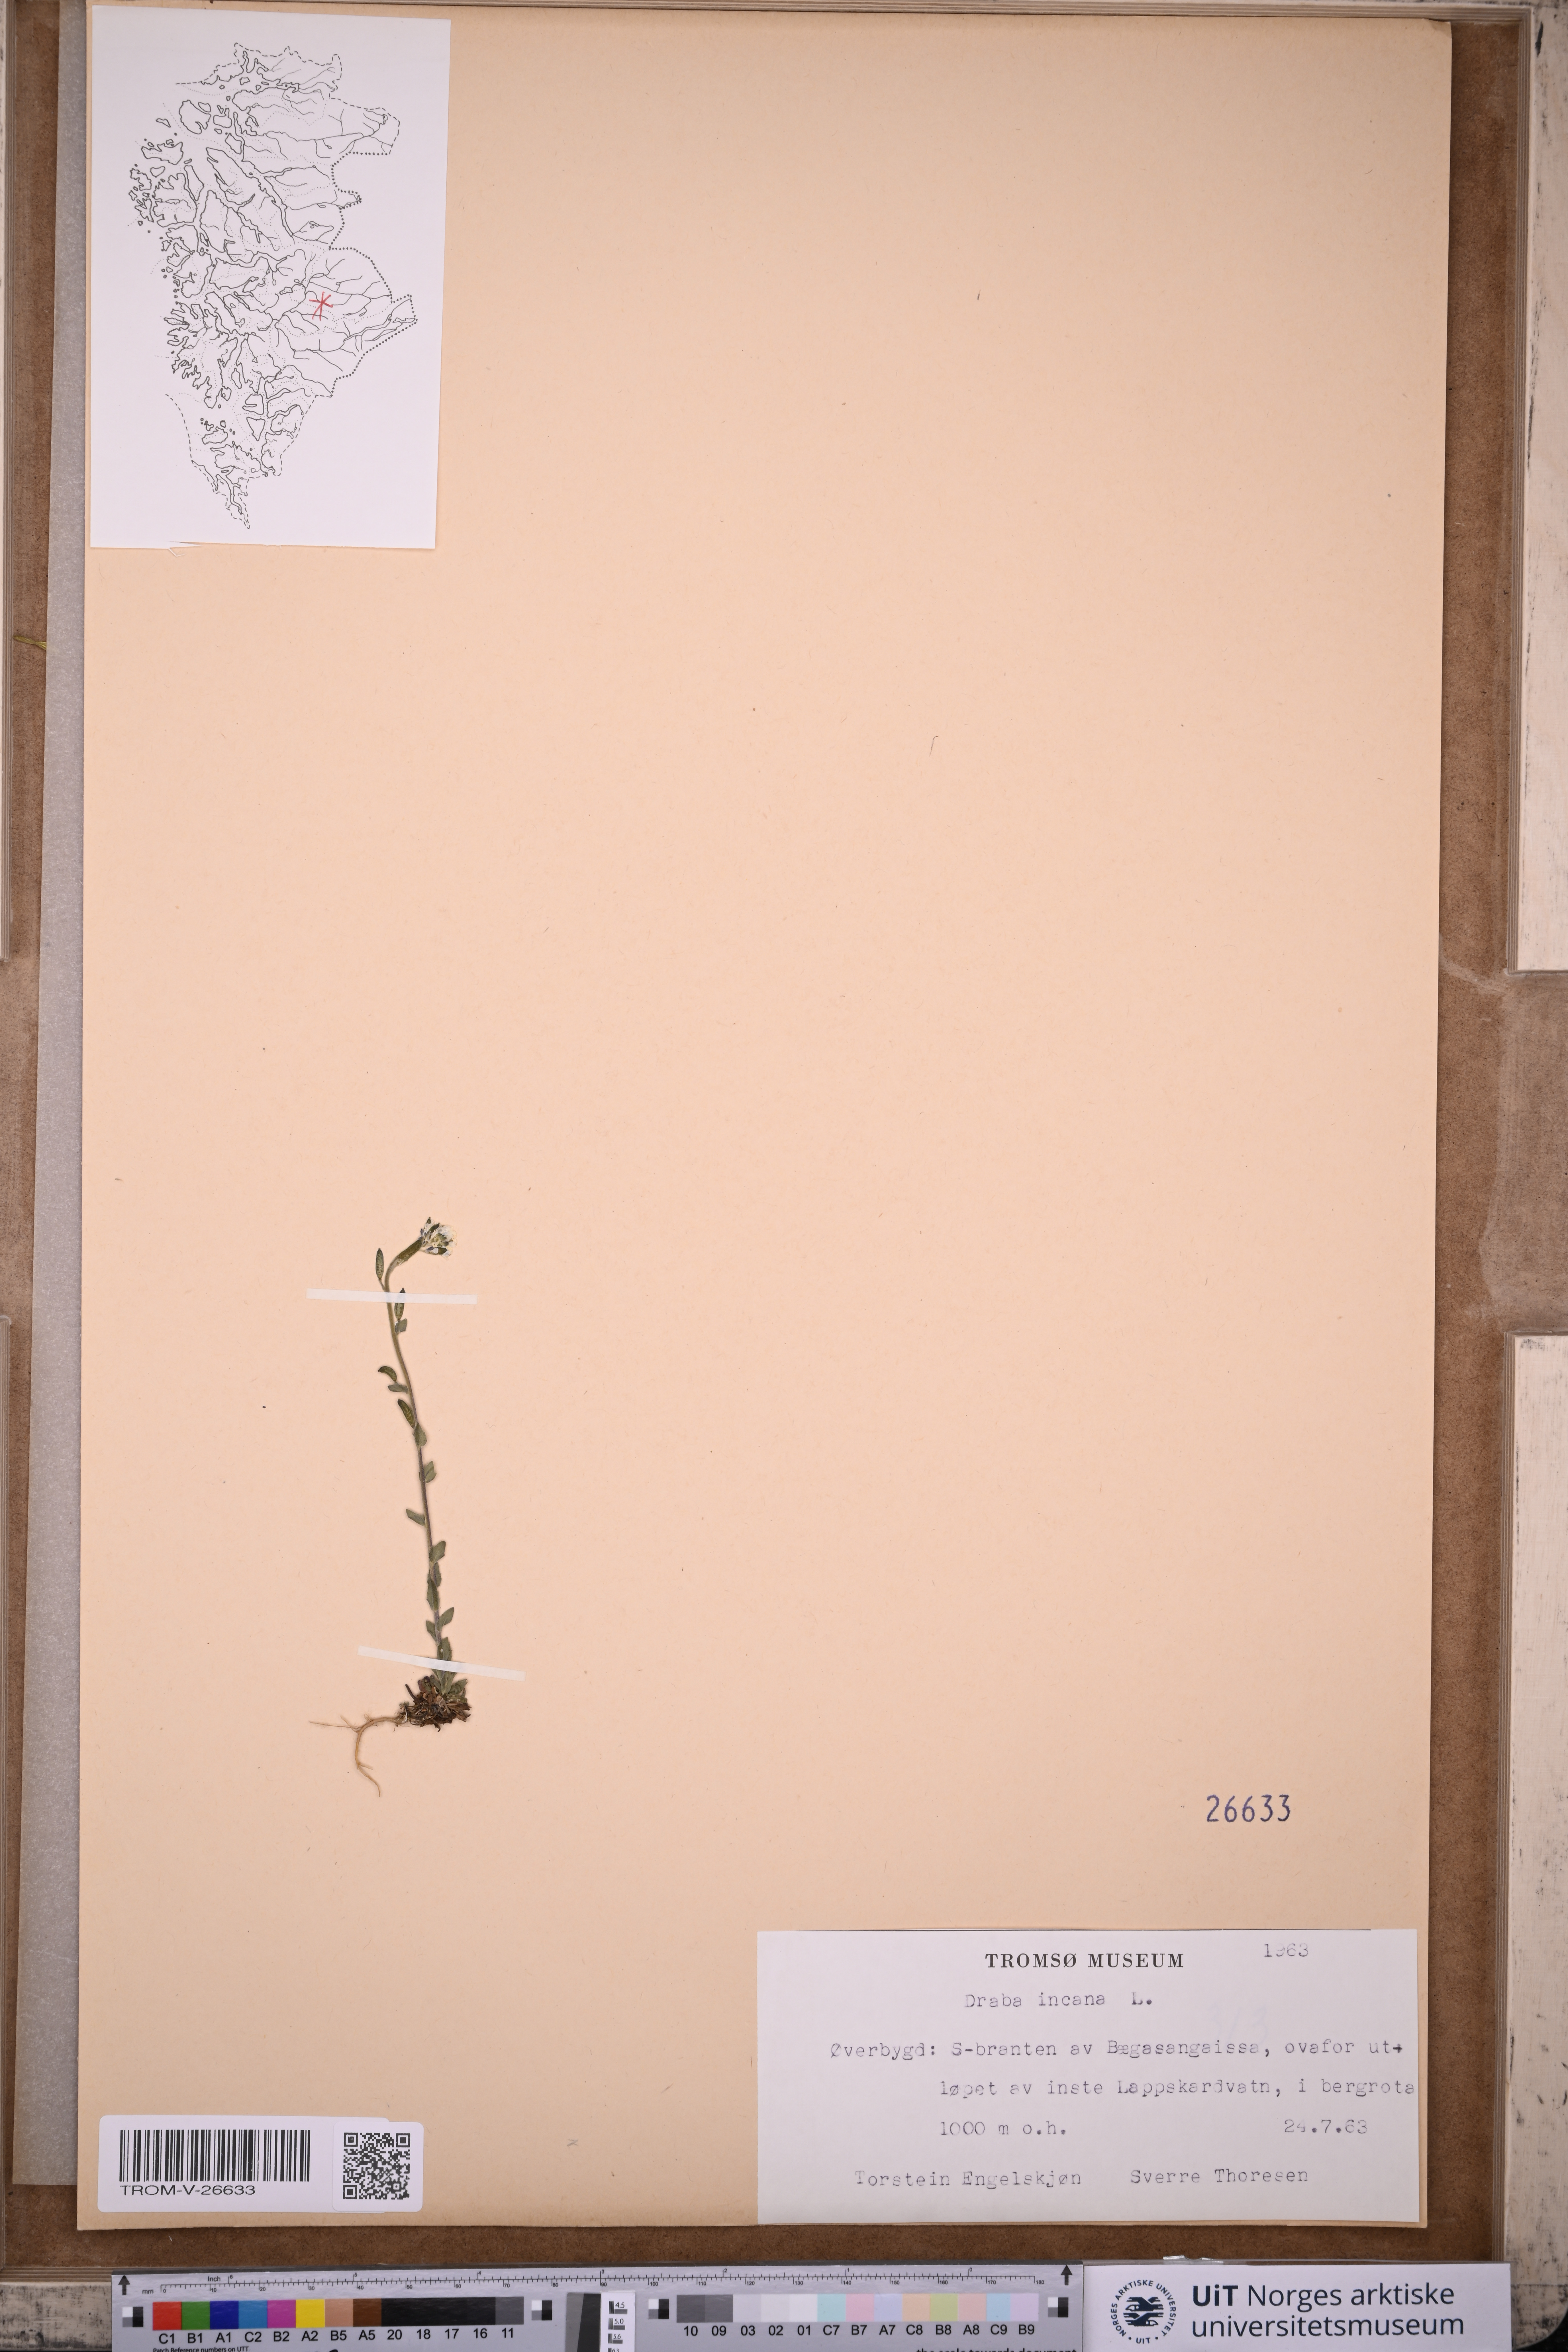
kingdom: Plantae
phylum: Tracheophyta
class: Magnoliopsida
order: Brassicales
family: Brassicaceae
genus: Draba
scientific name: Draba incana
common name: Hoary whitlow-grass
